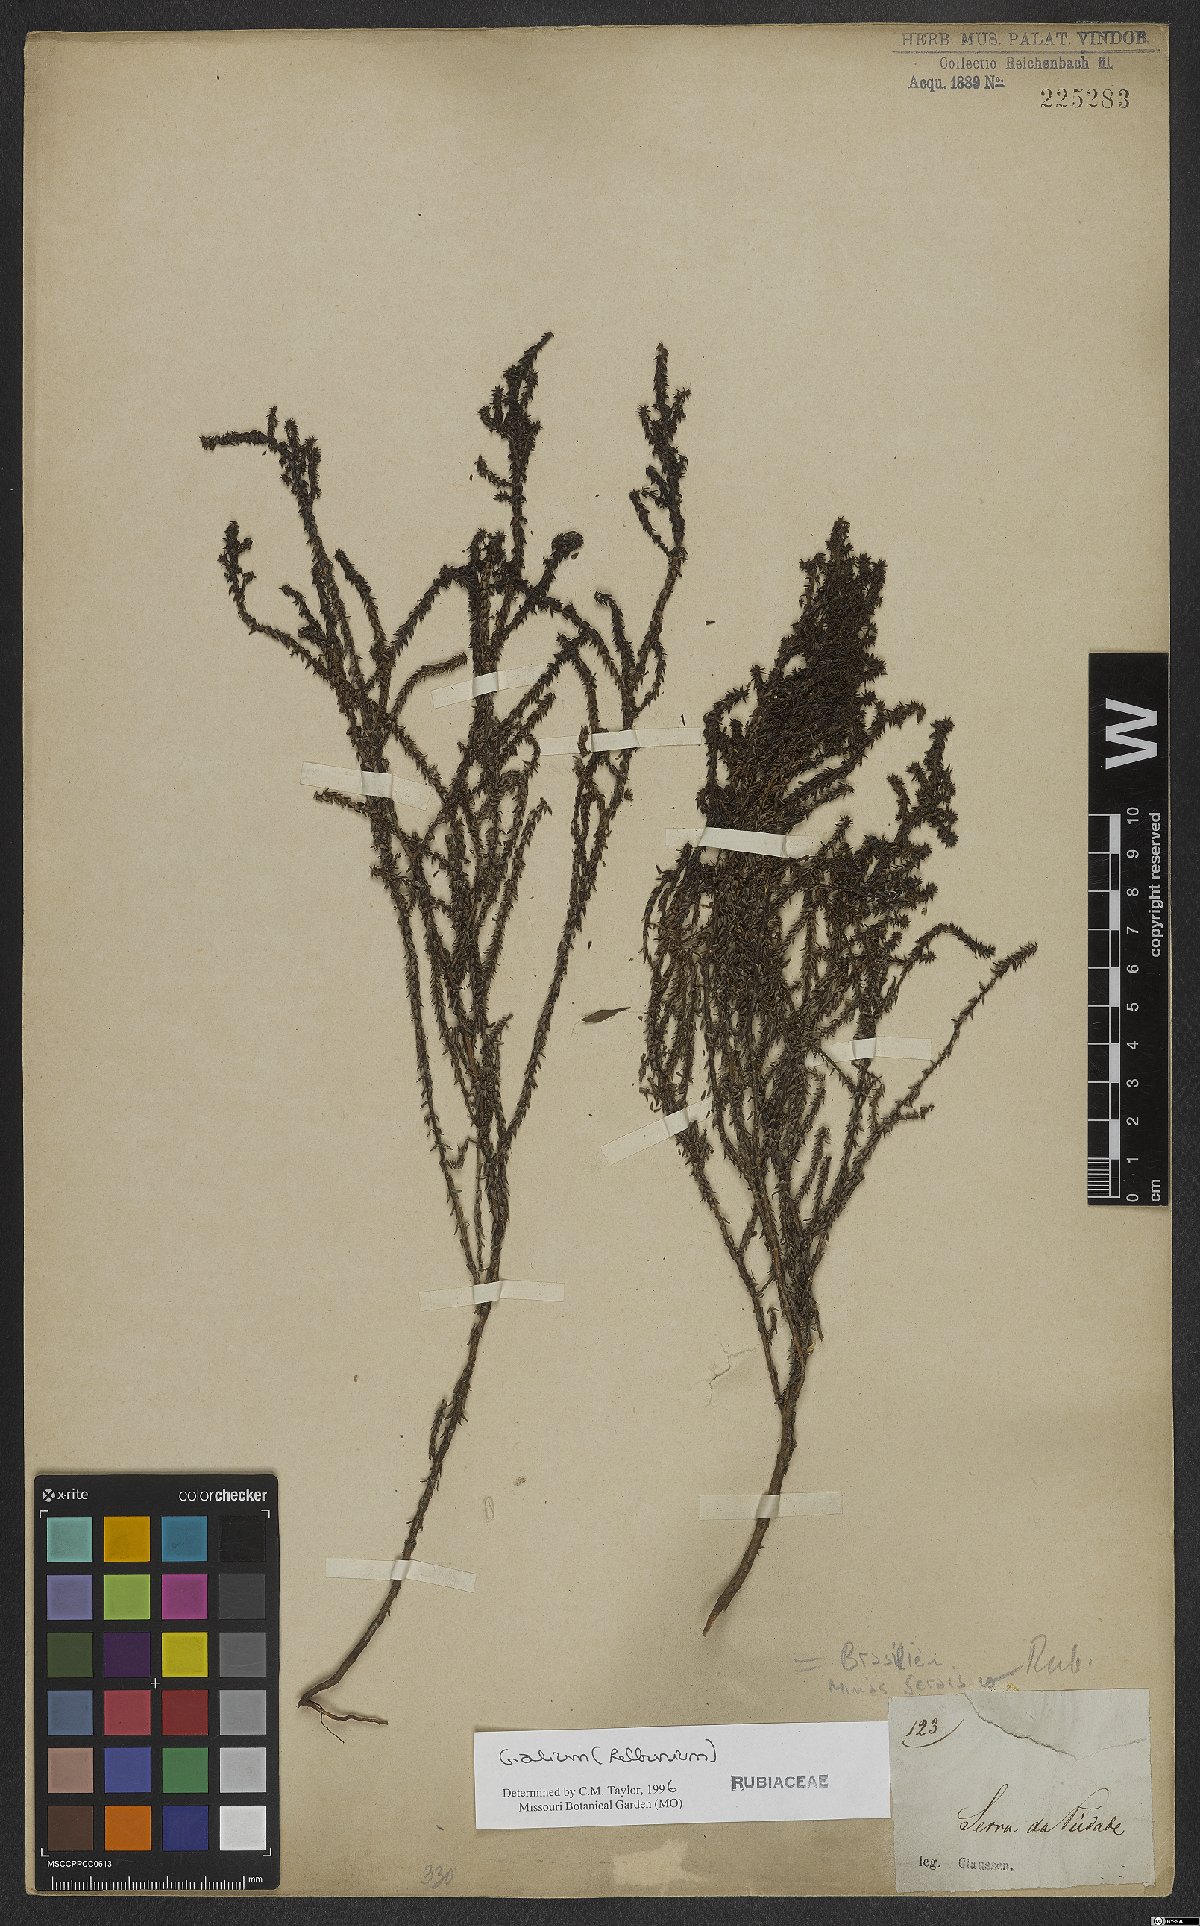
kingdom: Plantae
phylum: Tracheophyta
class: Magnoliopsida
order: Gentianales
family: Rubiaceae
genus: Galium
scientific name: Galium
